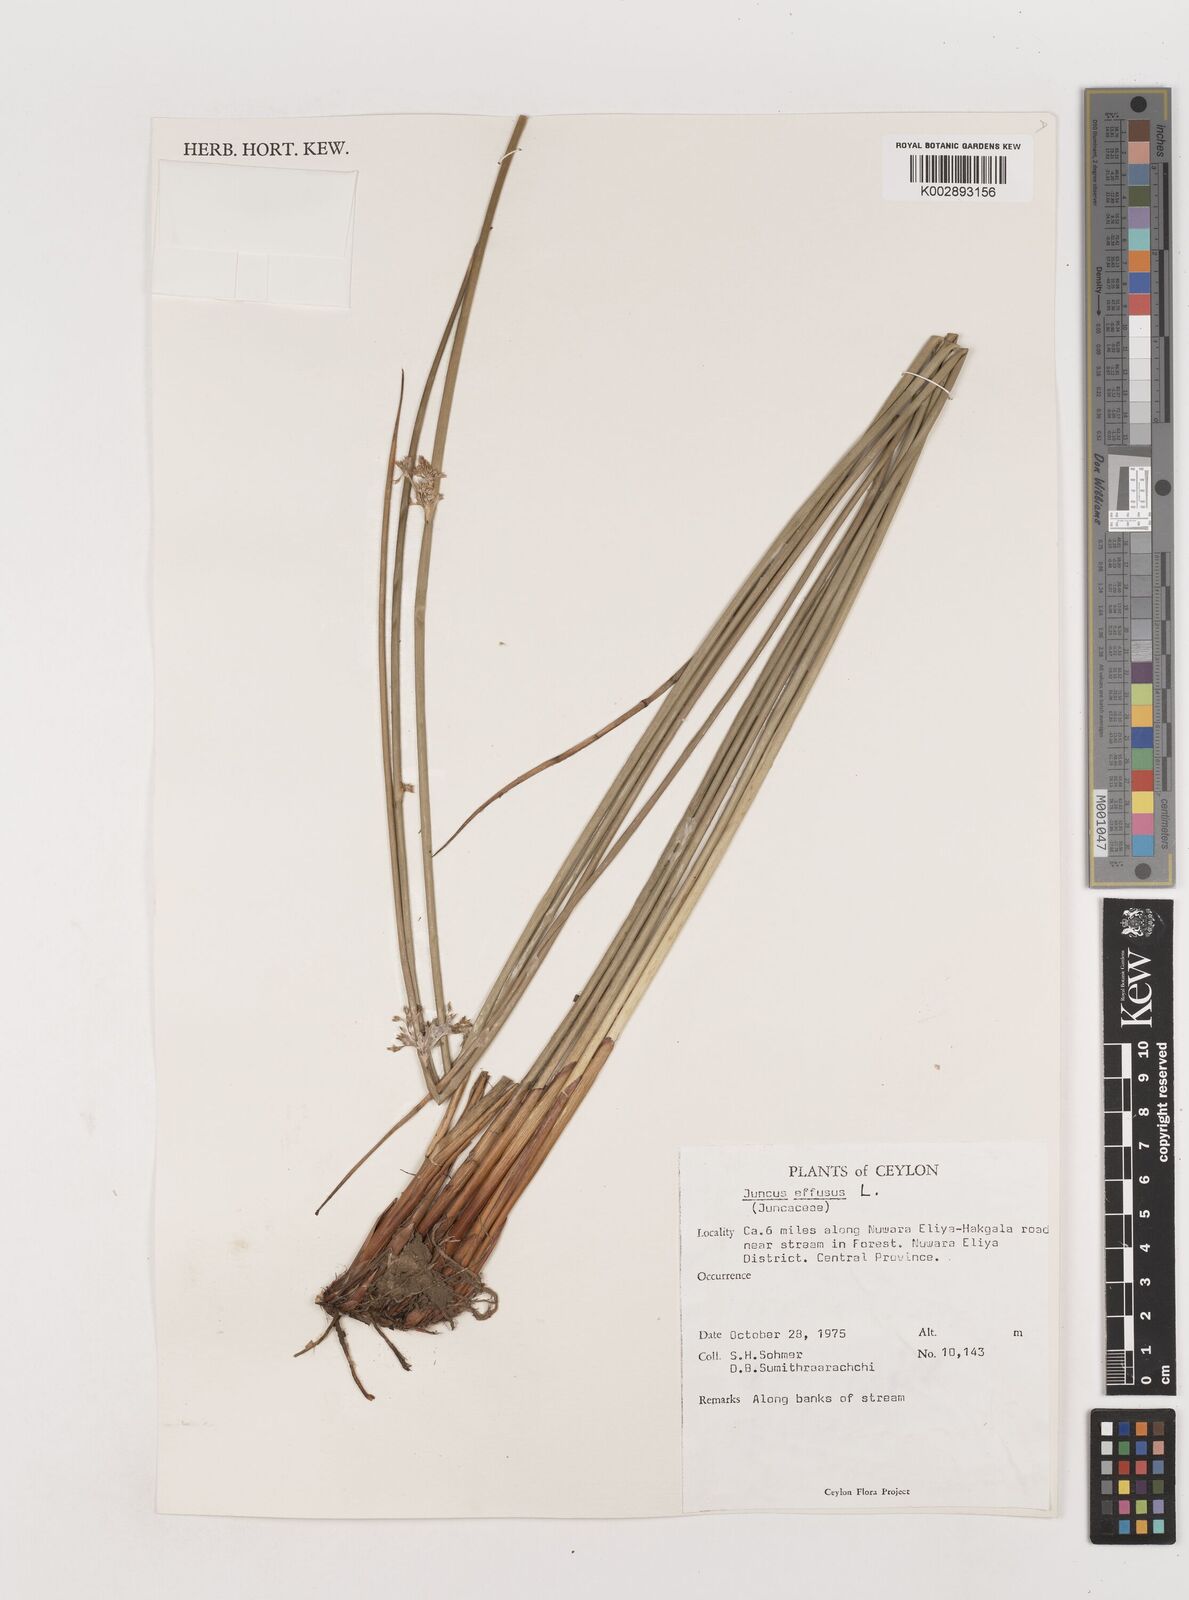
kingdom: Plantae
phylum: Tracheophyta
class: Liliopsida
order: Poales
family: Juncaceae
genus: Juncus
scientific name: Juncus effusus
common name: Soft rush
